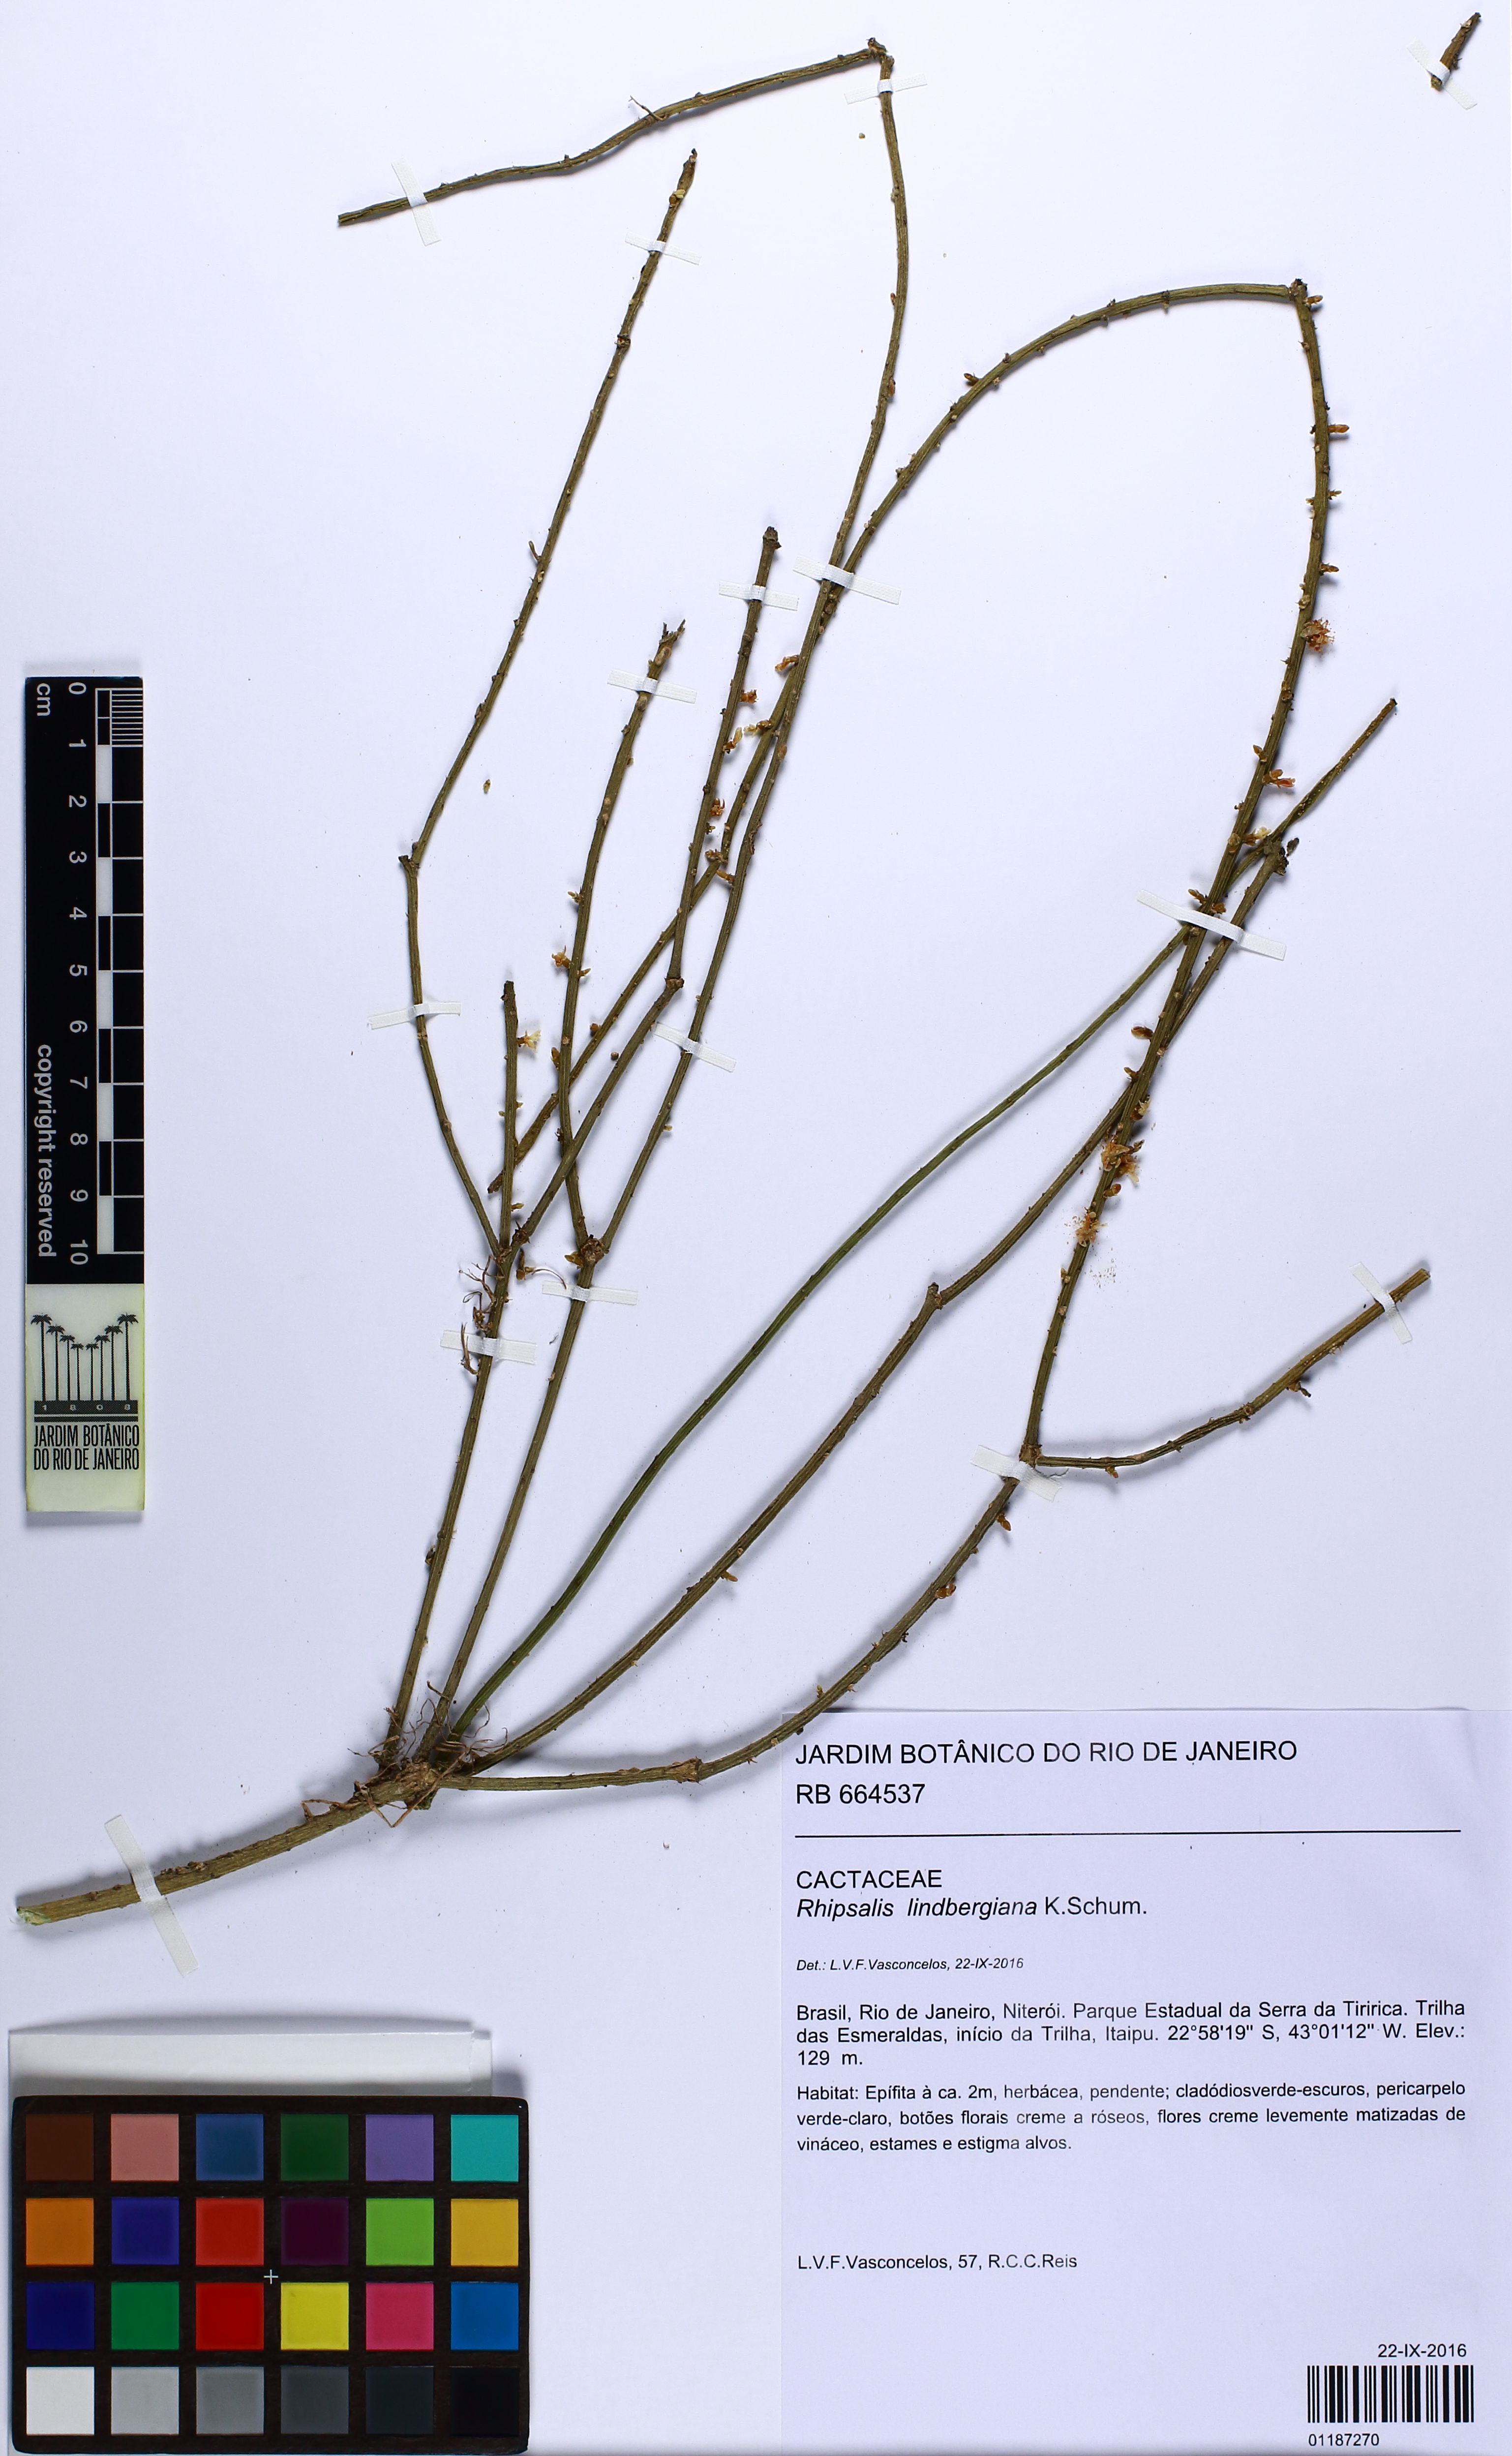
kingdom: Plantae
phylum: Tracheophyta
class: Magnoliopsida
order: Caryophyllales
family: Cactaceae
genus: Rhipsalis
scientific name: Rhipsalis lindbergiana
